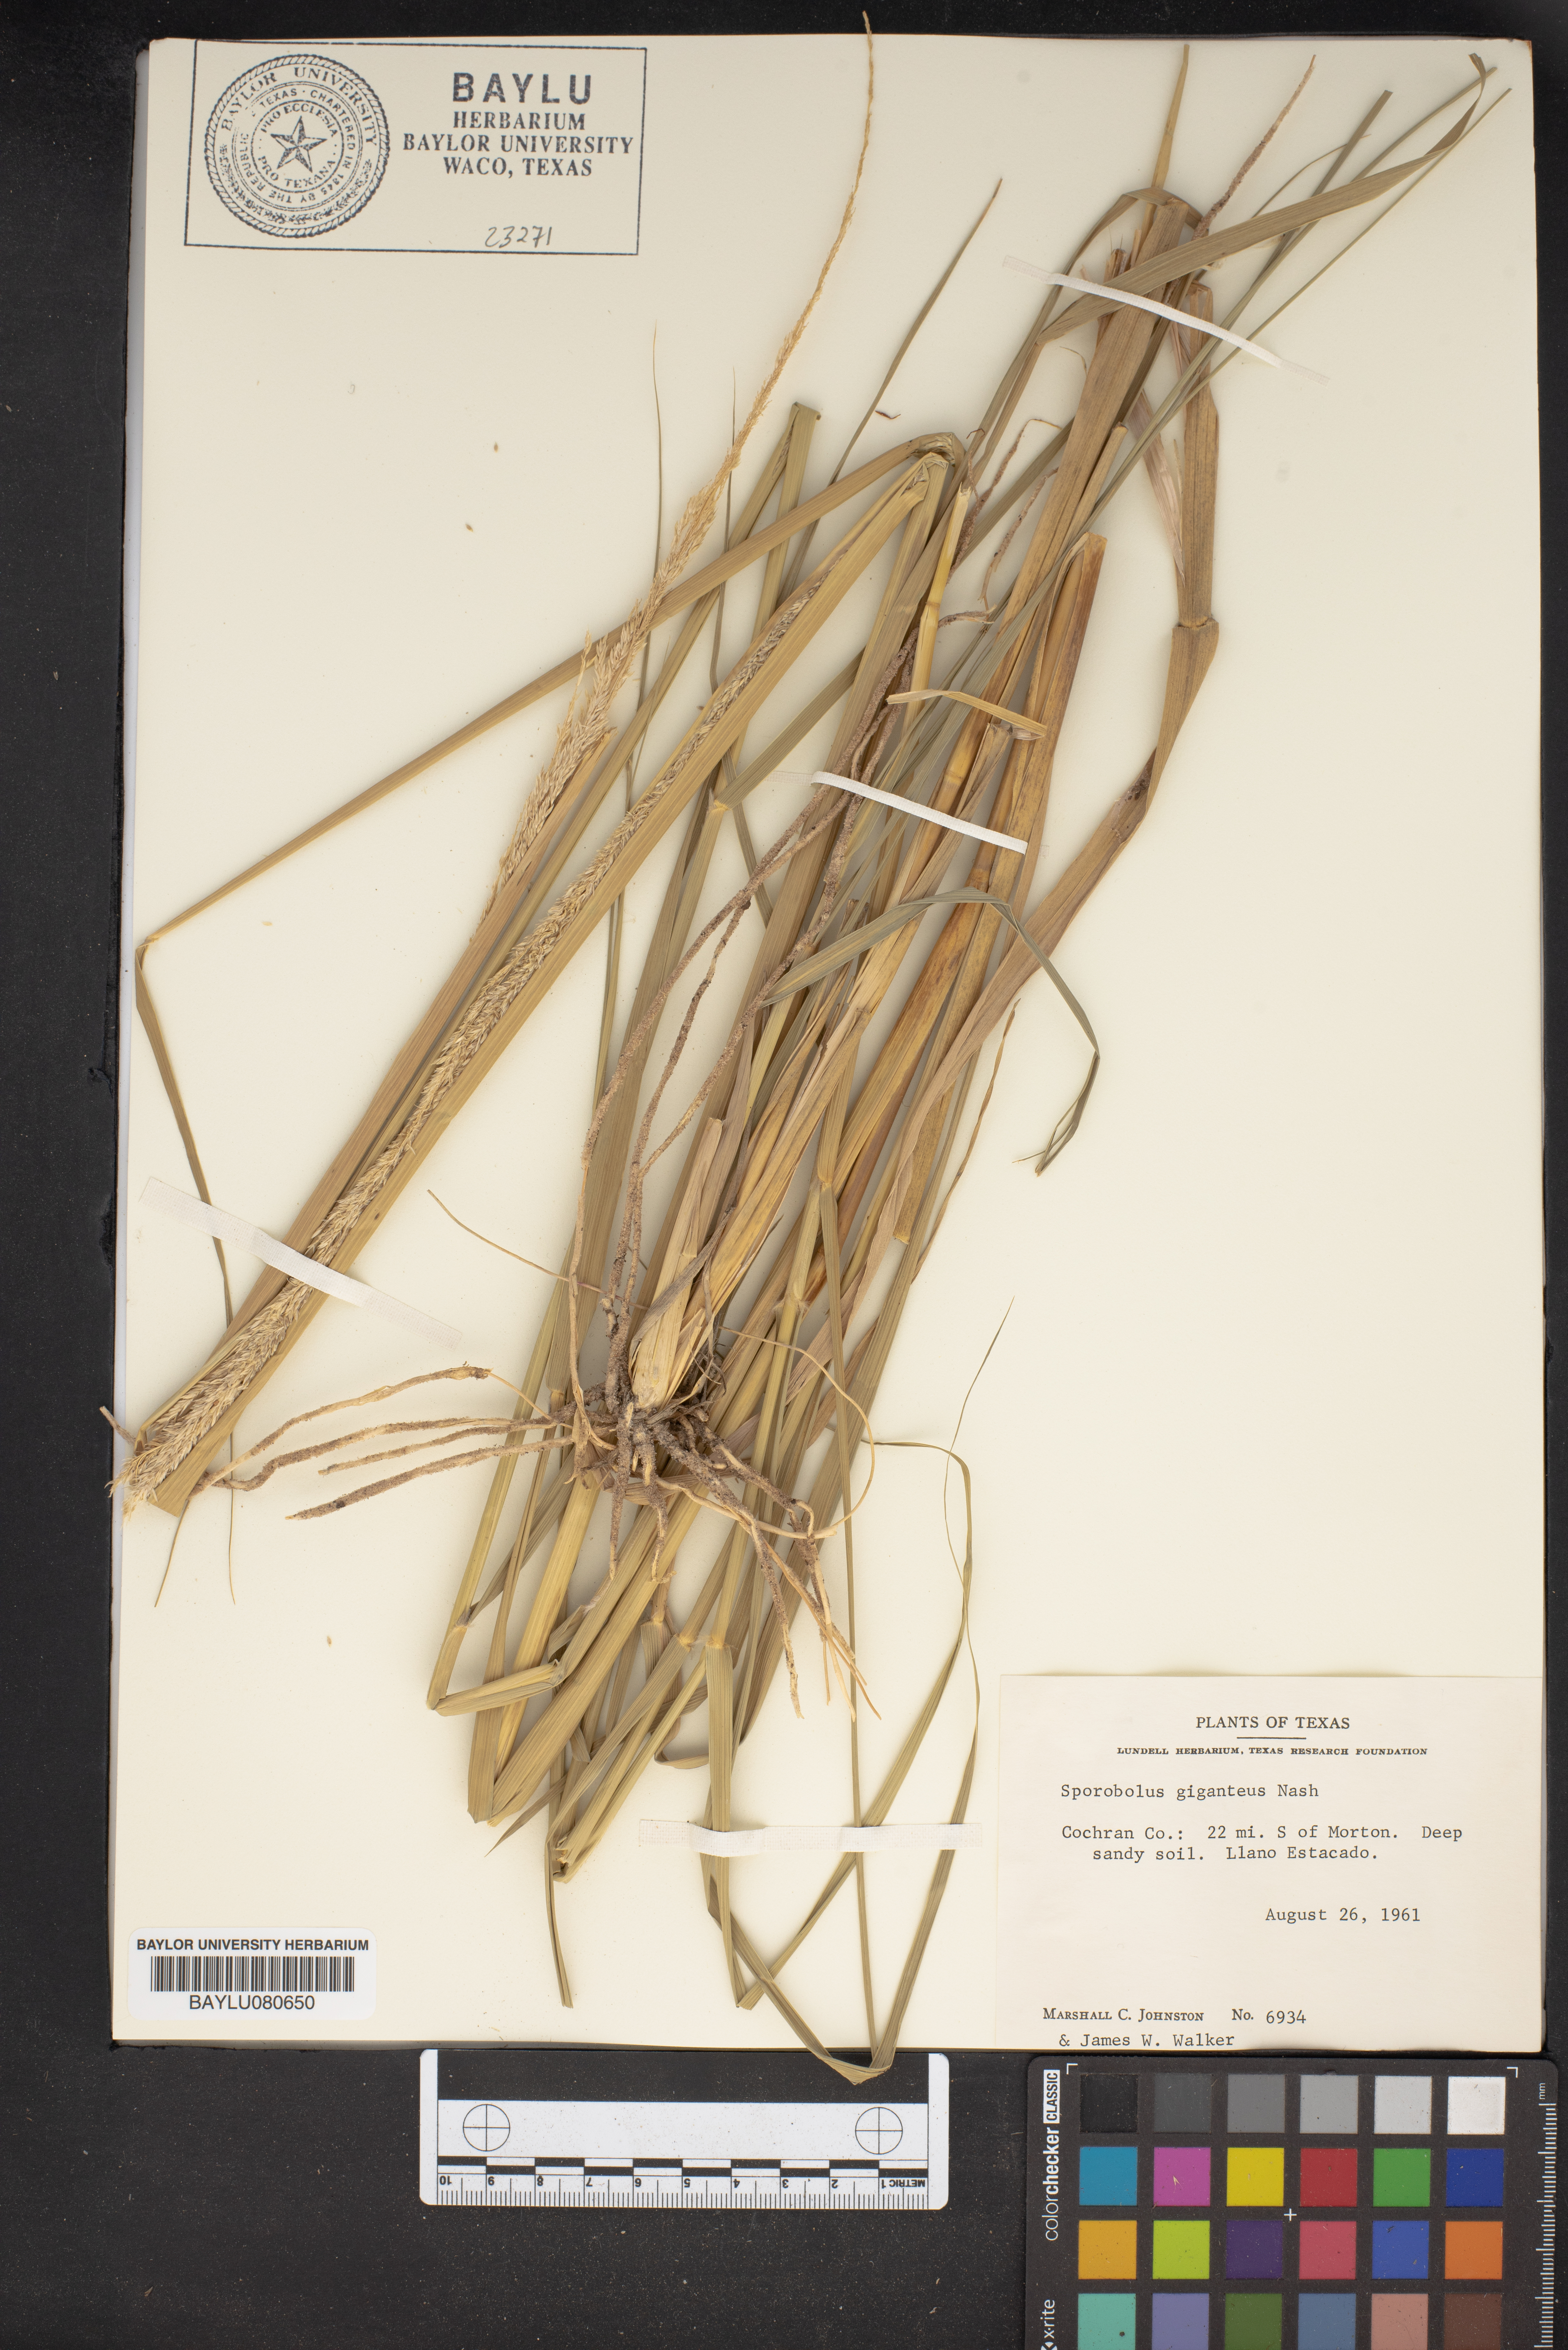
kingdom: Plantae
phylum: Tracheophyta
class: Liliopsida
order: Poales
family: Poaceae
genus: Sporobolus
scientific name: Sporobolus giganteus
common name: Giant dropseed
